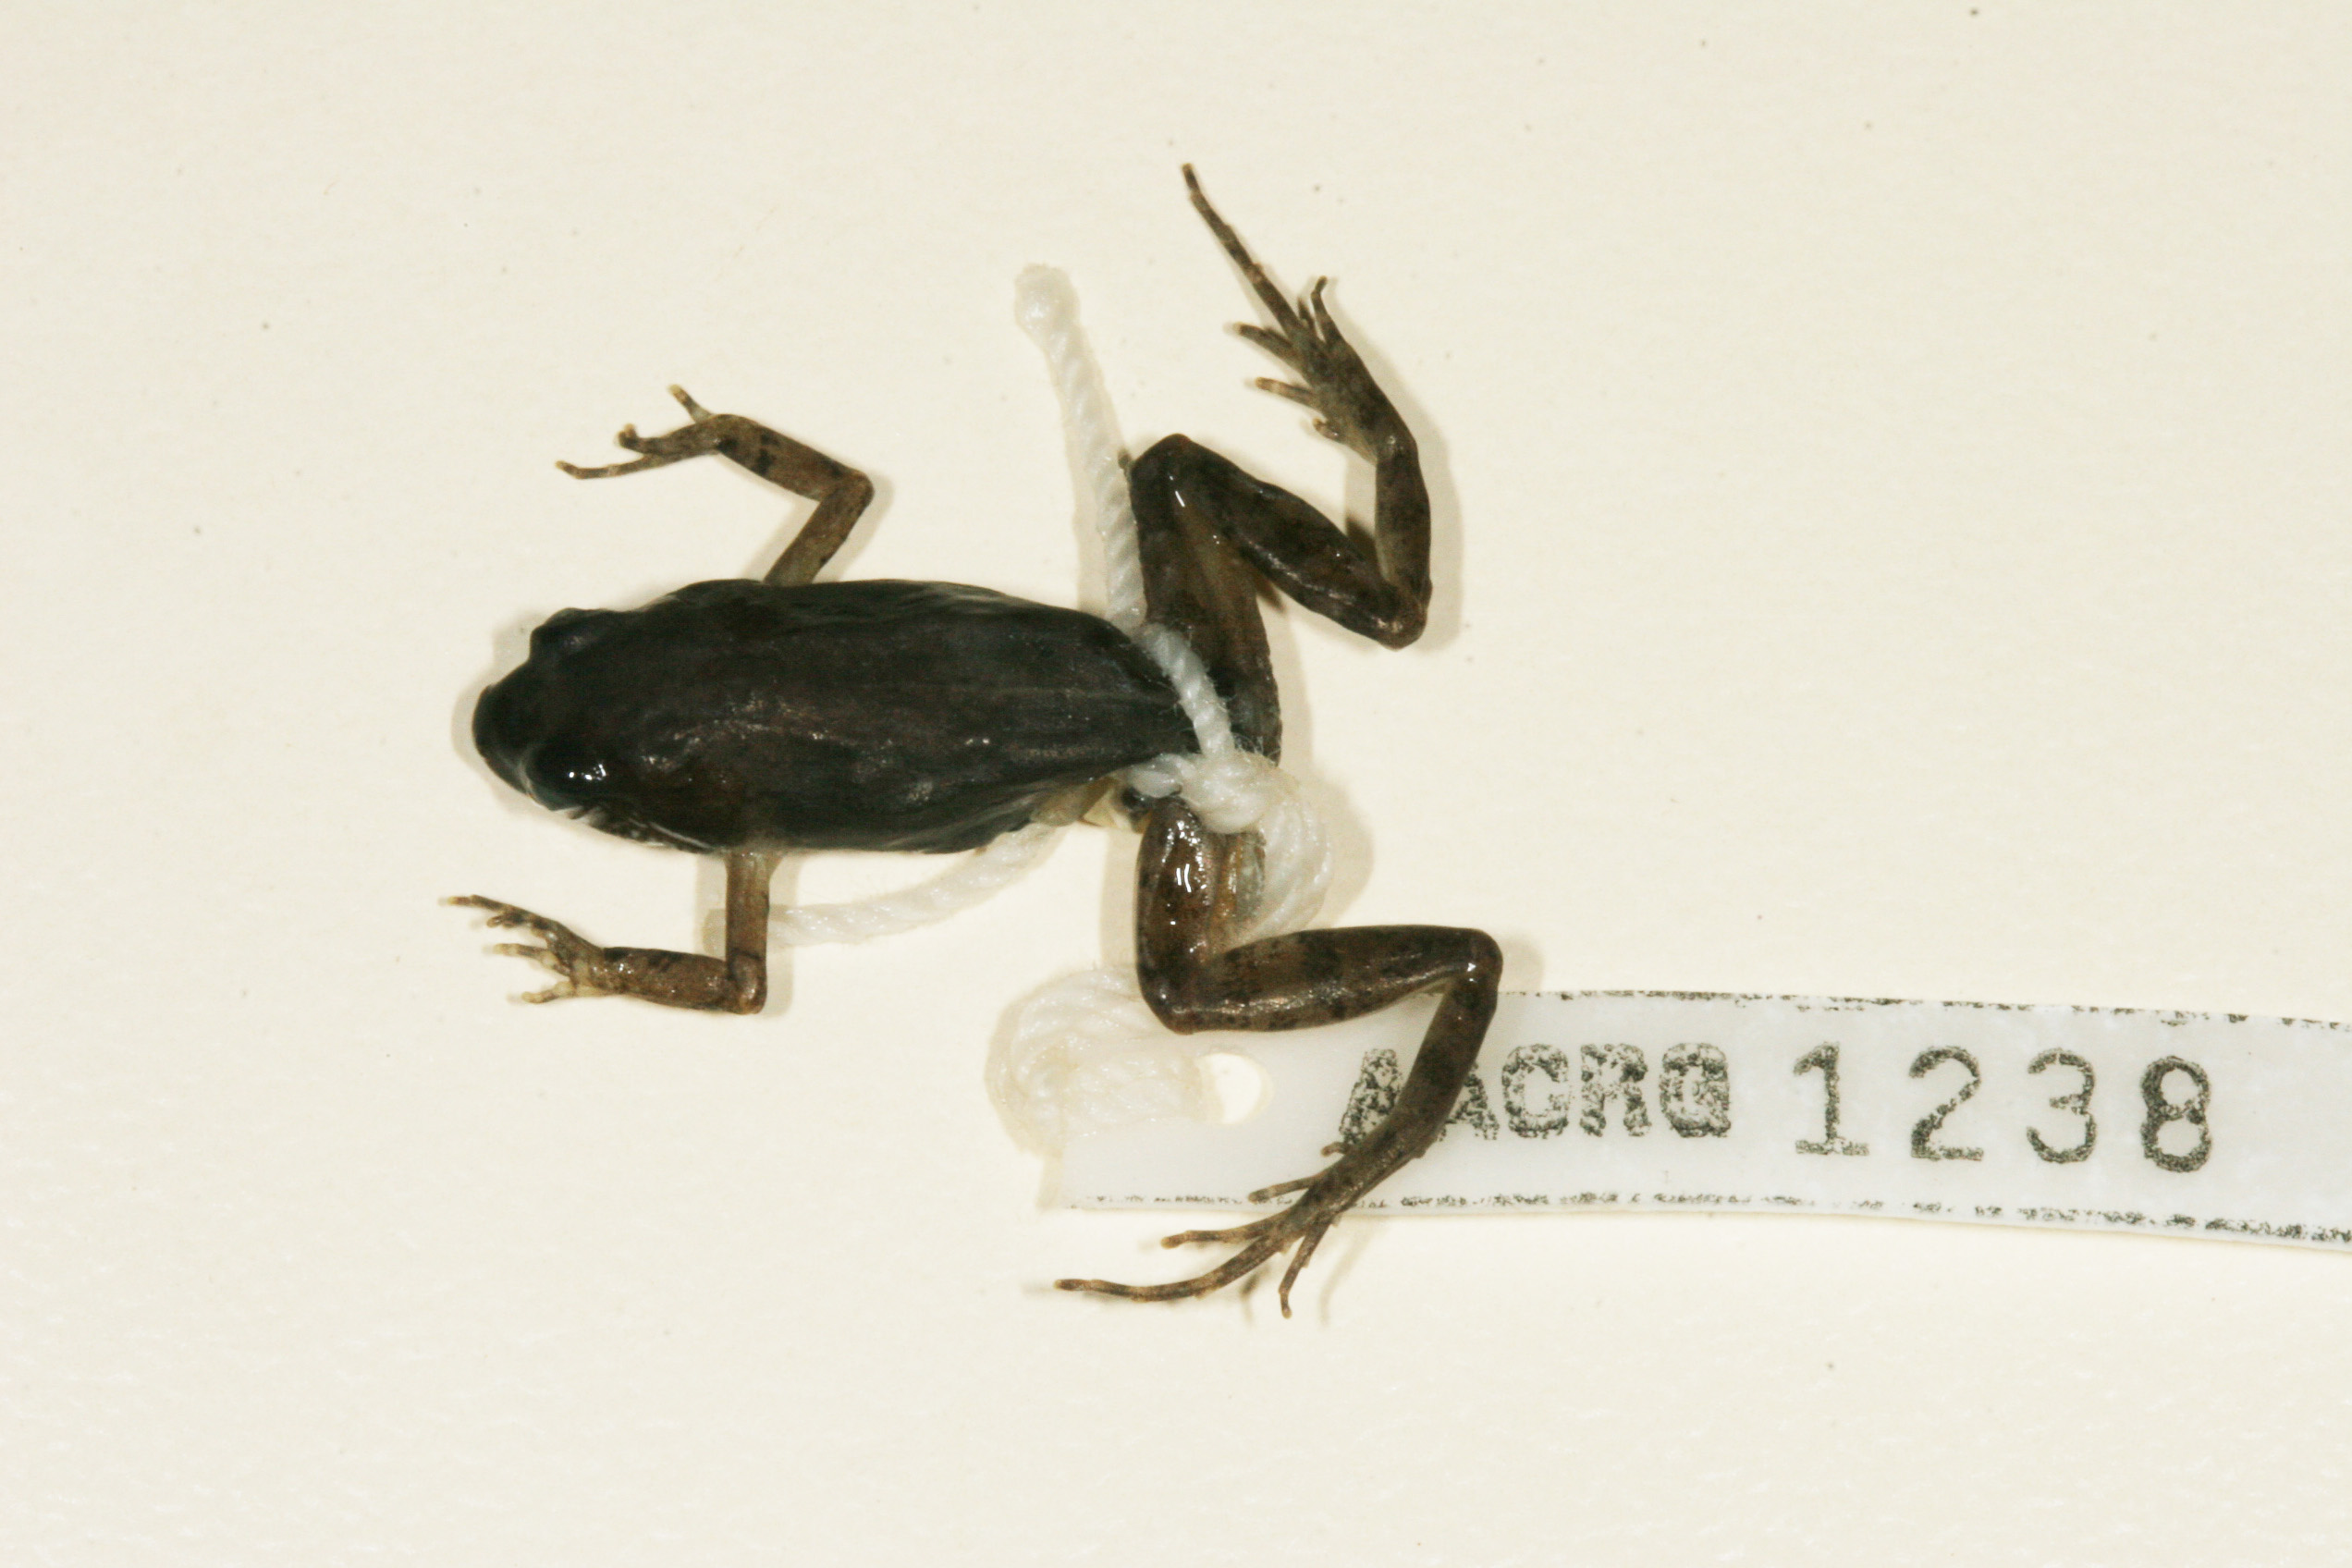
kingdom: Animalia
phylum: Chordata
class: Amphibia
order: Anura
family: Pyxicephalidae
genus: Cacosternum
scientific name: Cacosternum nanum
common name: Bronze dainty frog
